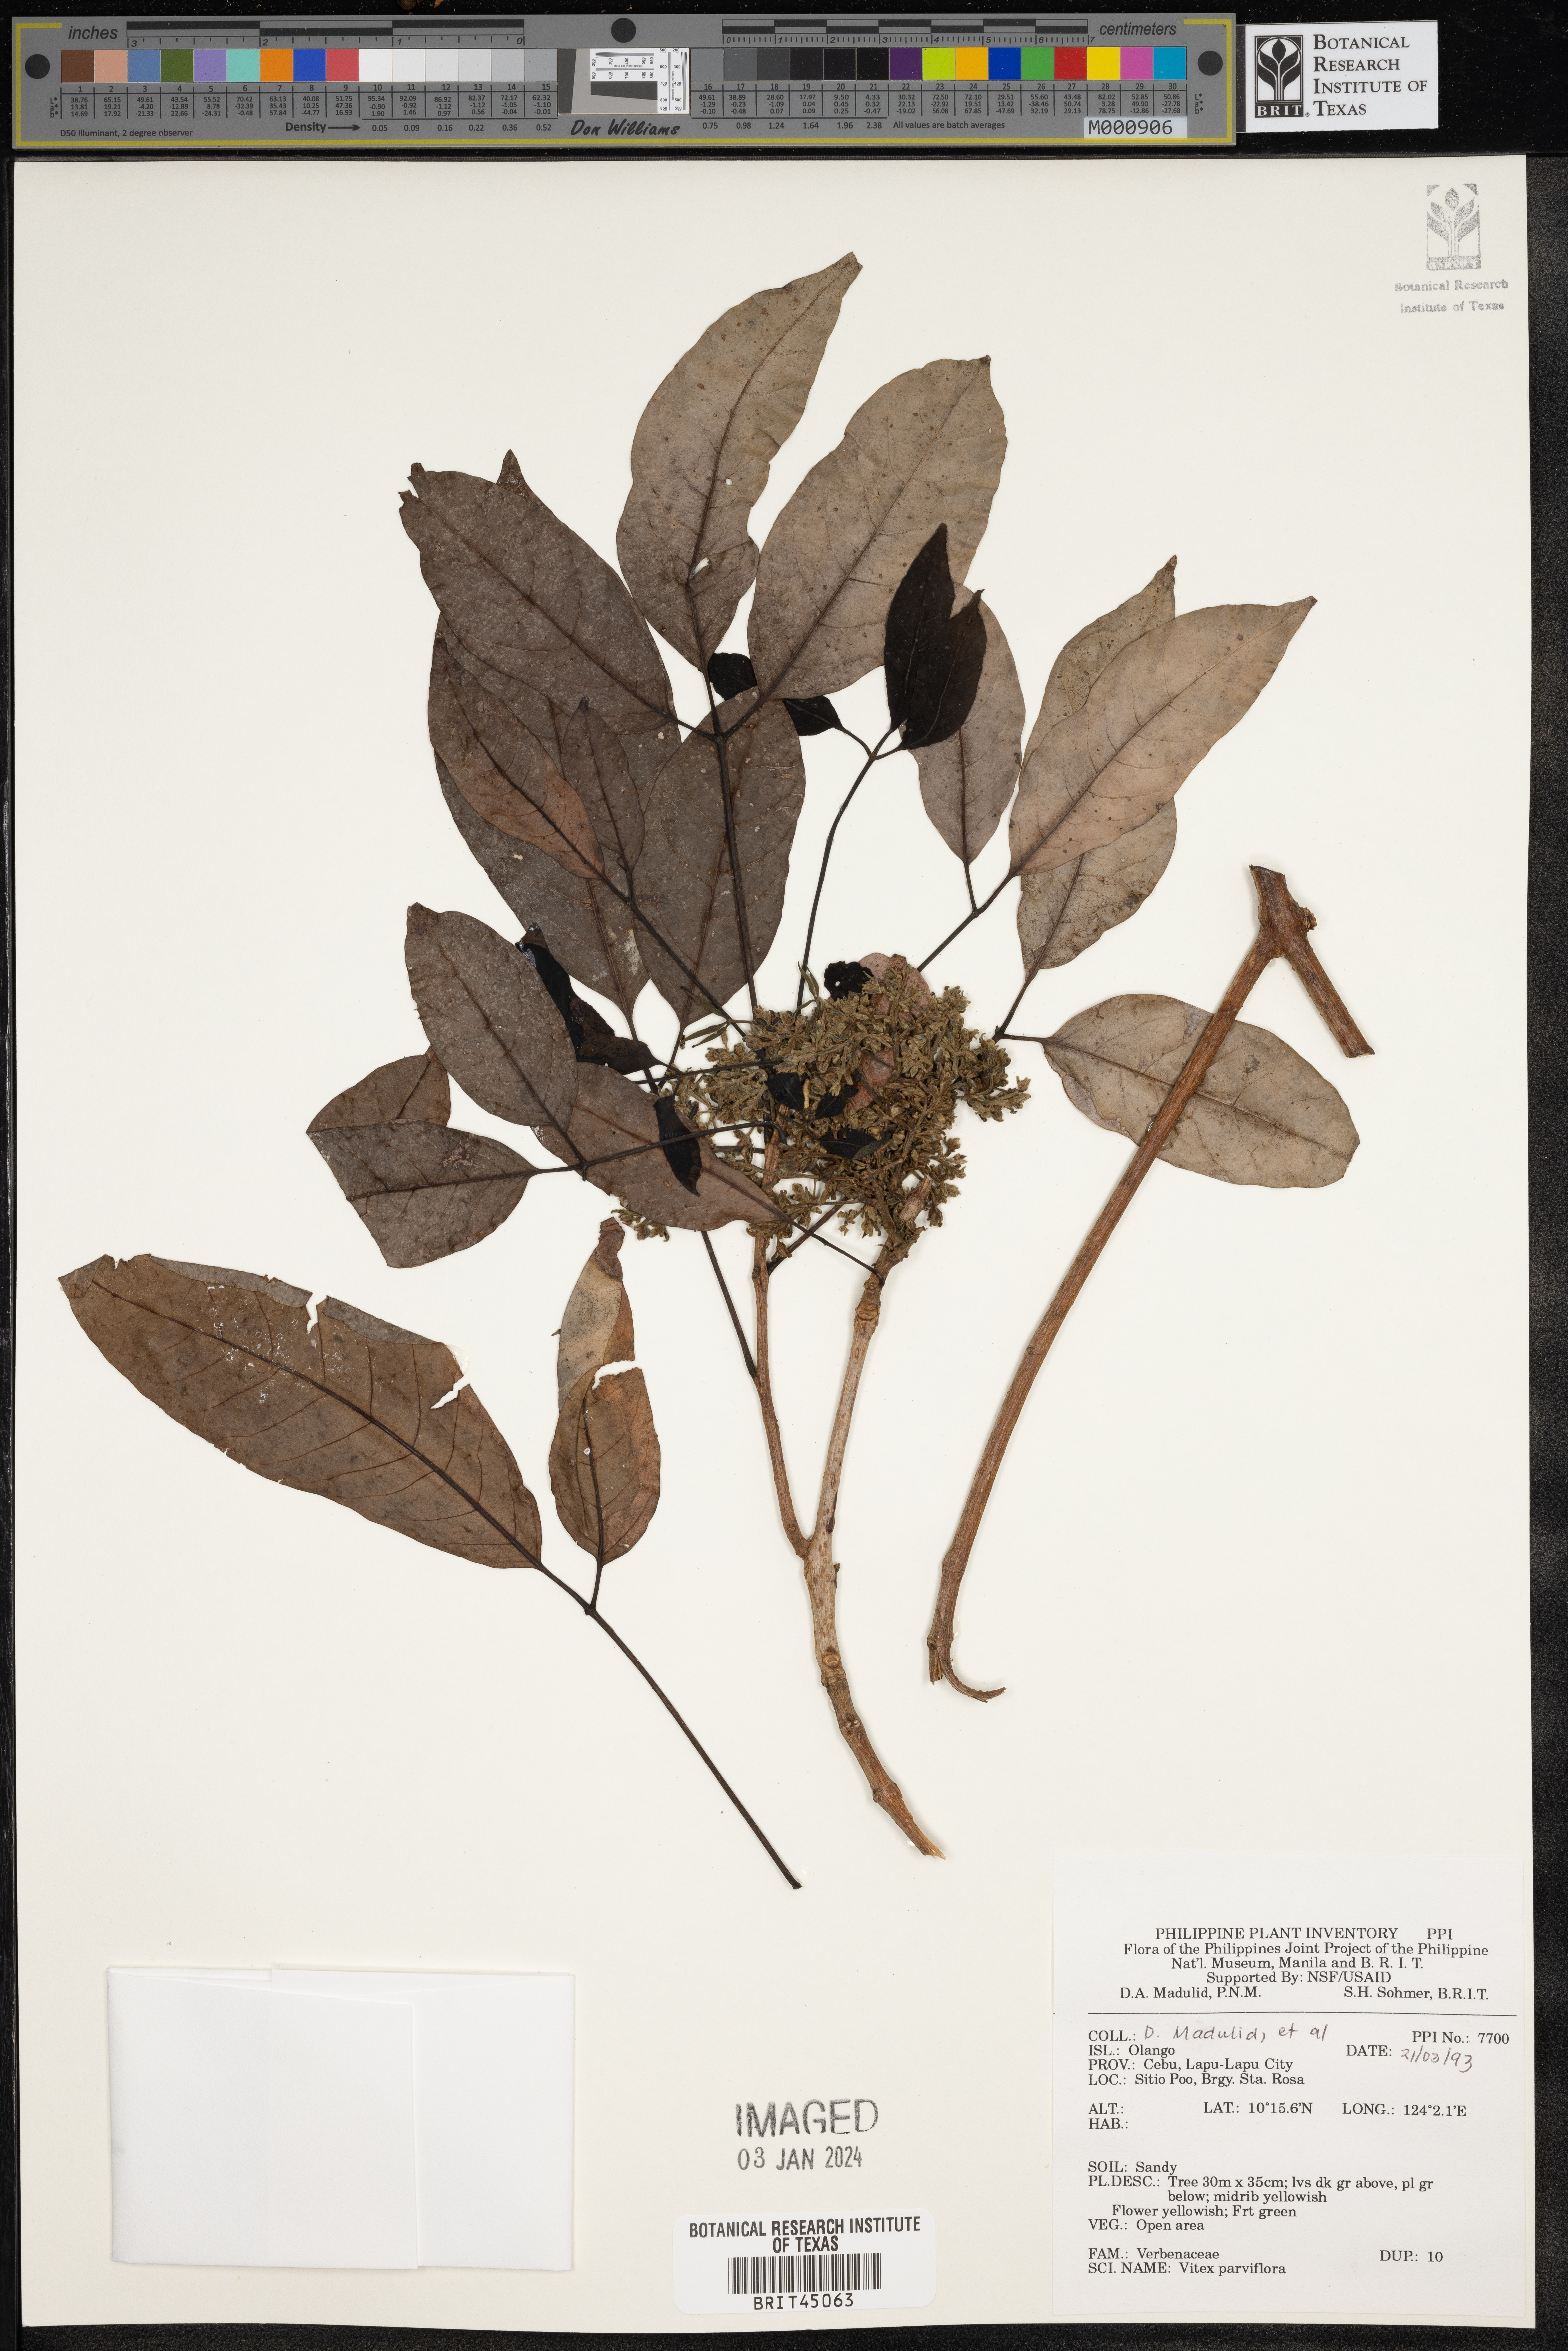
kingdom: Plantae
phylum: Tracheophyta
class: Magnoliopsida
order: Lamiales
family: Lamiaceae
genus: Vitex
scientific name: Vitex parviflora
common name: Smallflower chastetree
